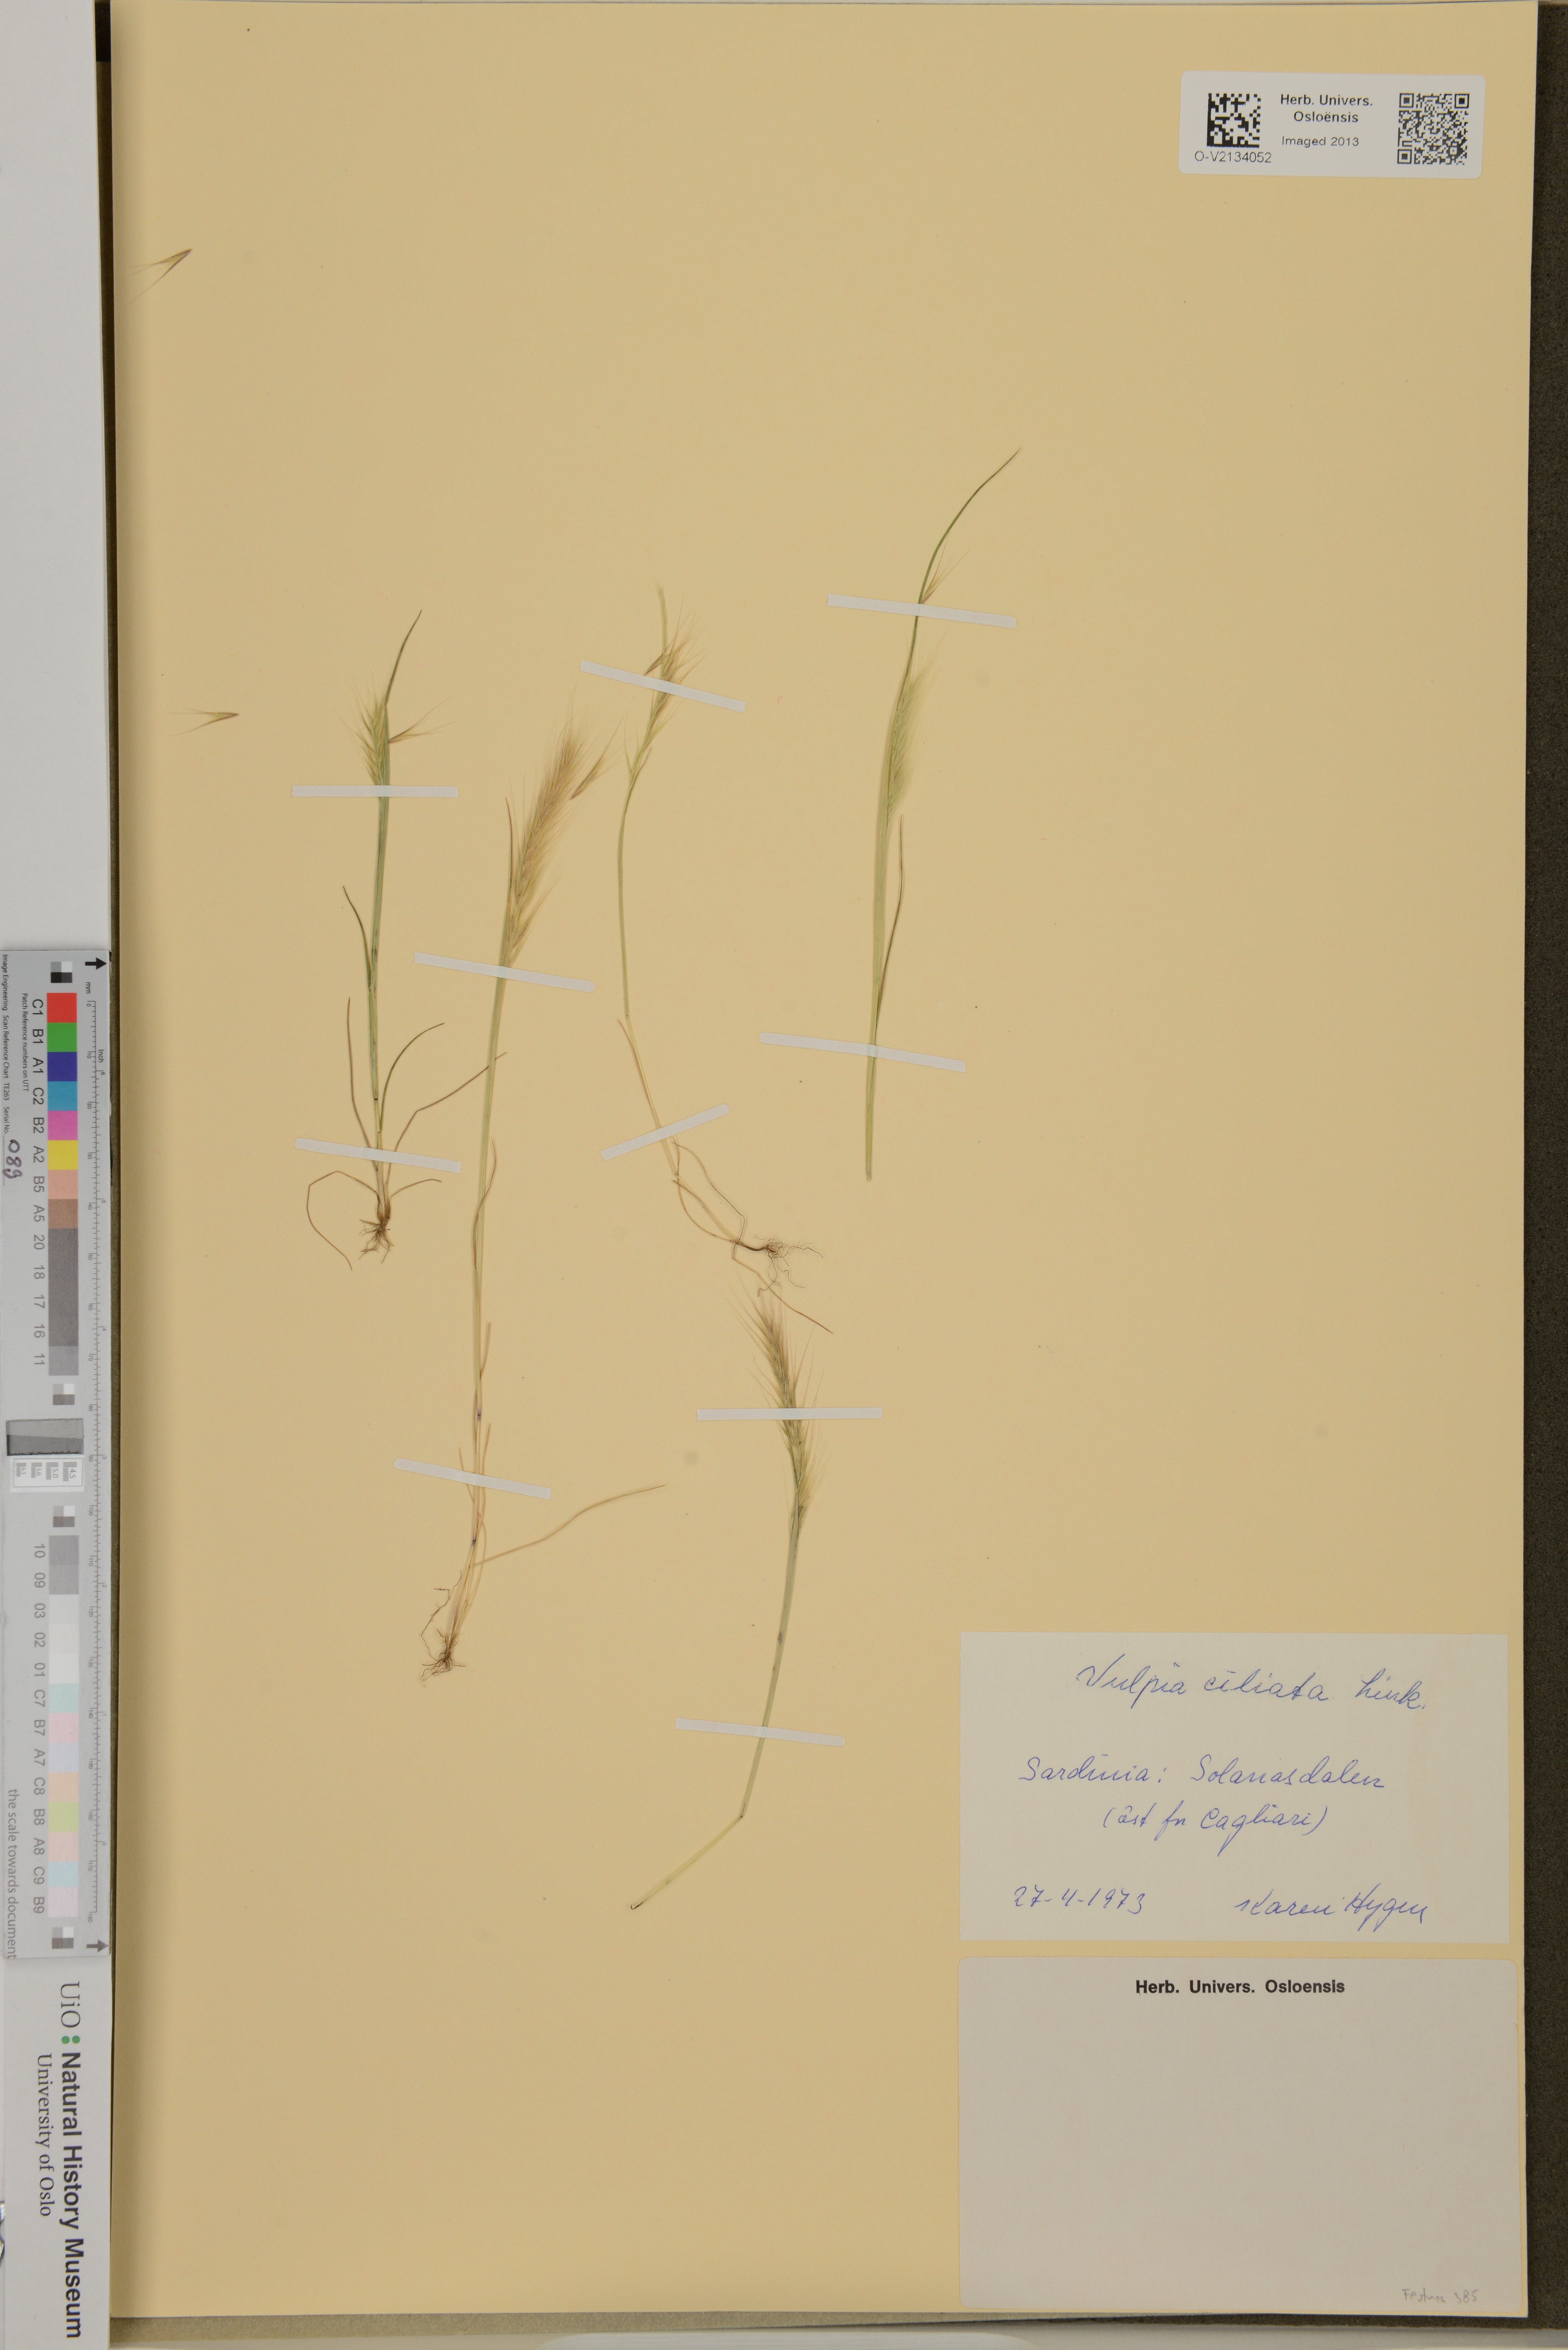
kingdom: Plantae
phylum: Tracheophyta
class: Liliopsida
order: Poales
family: Poaceae
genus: Festuca
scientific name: Festuca ambigua
